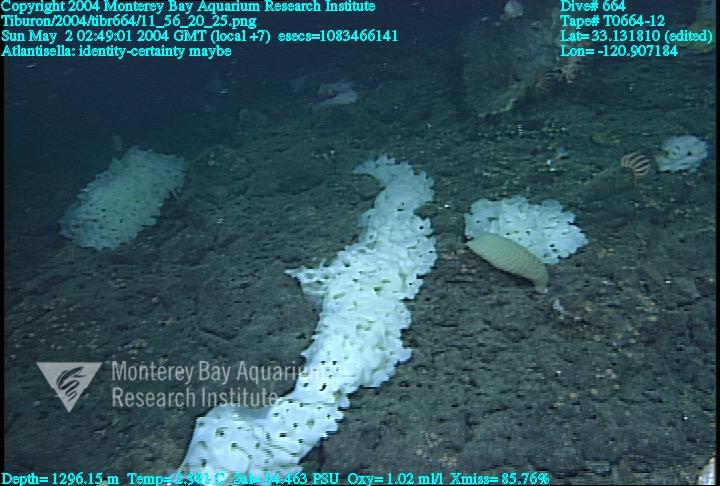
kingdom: Animalia
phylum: Porifera
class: Hexactinellida
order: Lyssacinosida
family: Euplectellidae
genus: Atlantisella
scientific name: Atlantisella
